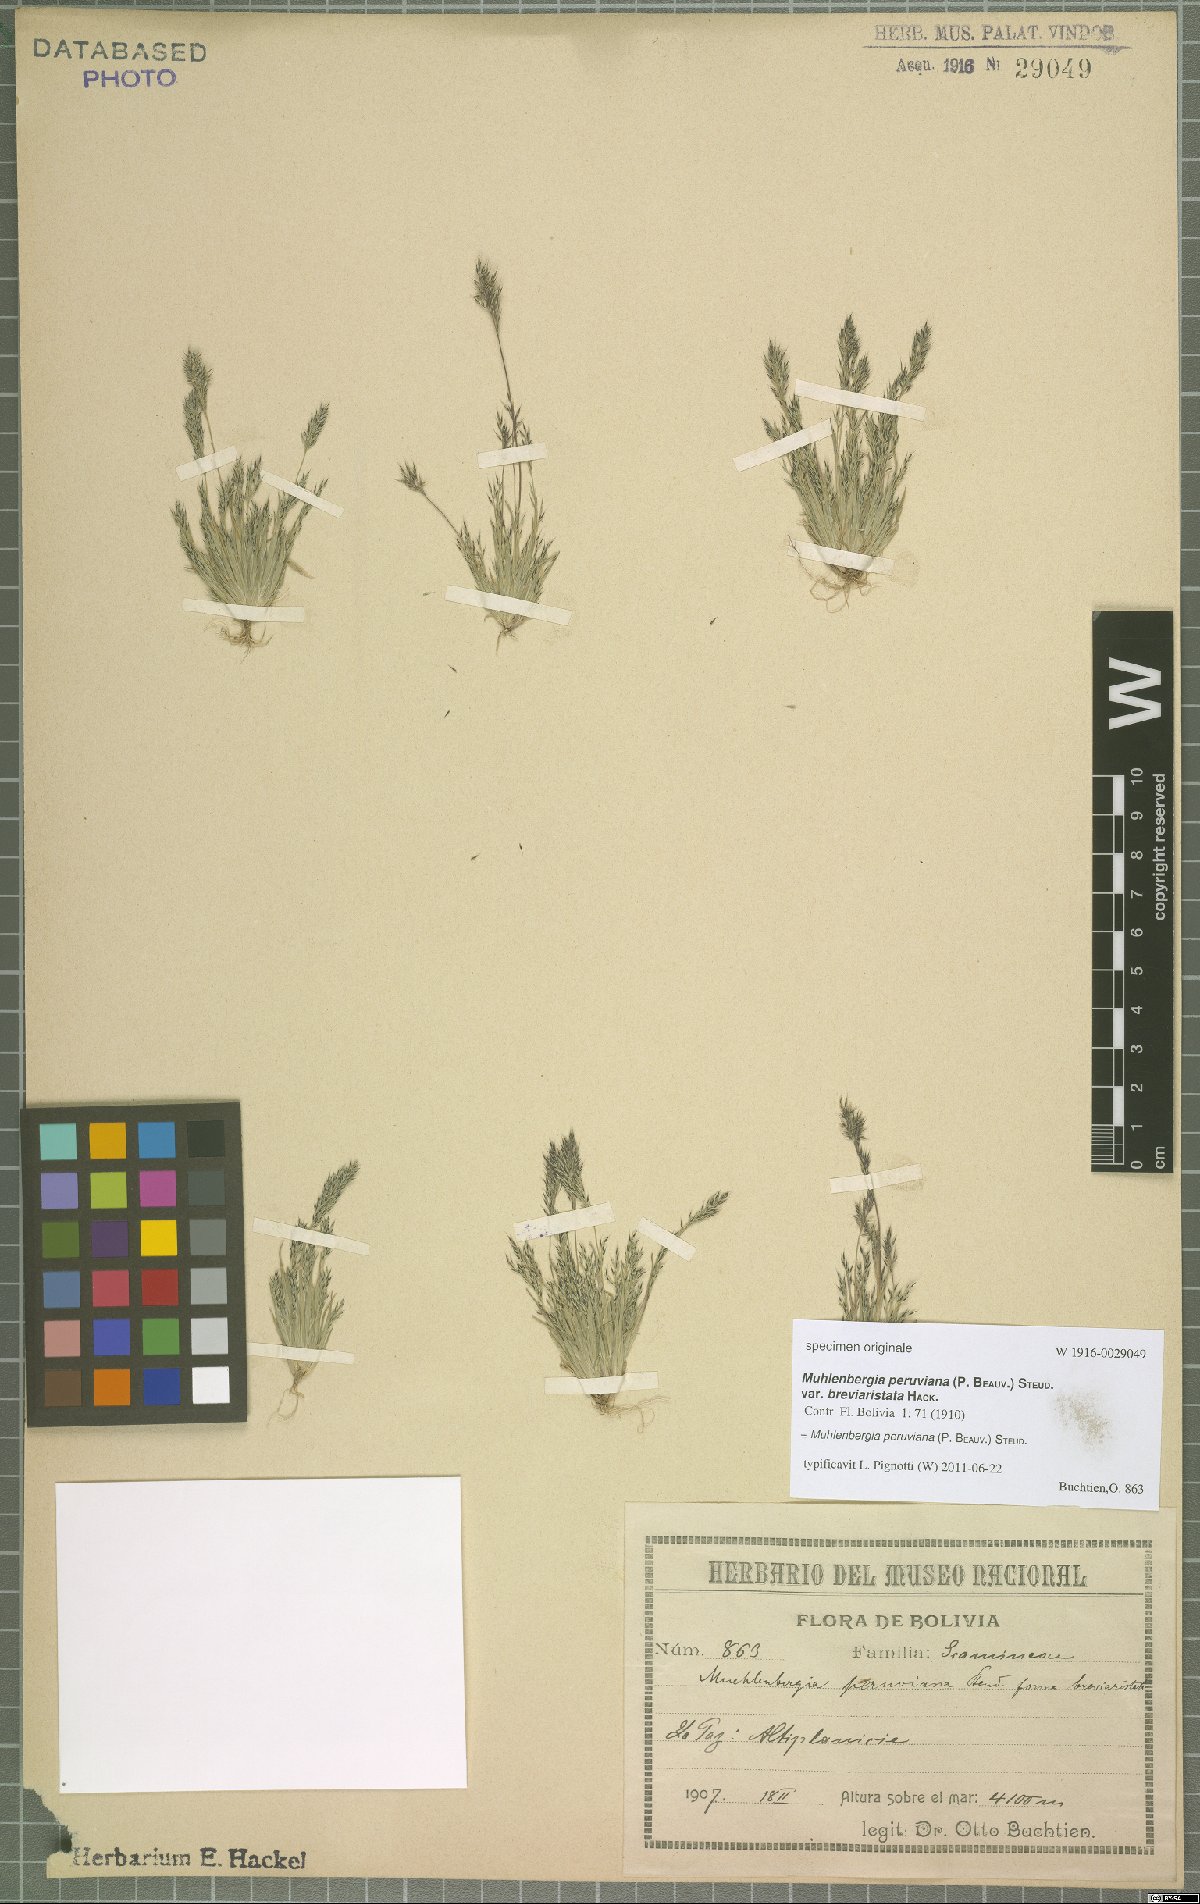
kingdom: Plantae
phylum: Tracheophyta
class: Liliopsida
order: Poales
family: Poaceae
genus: Muhlenbergia
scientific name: Muhlenbergia peruviana
